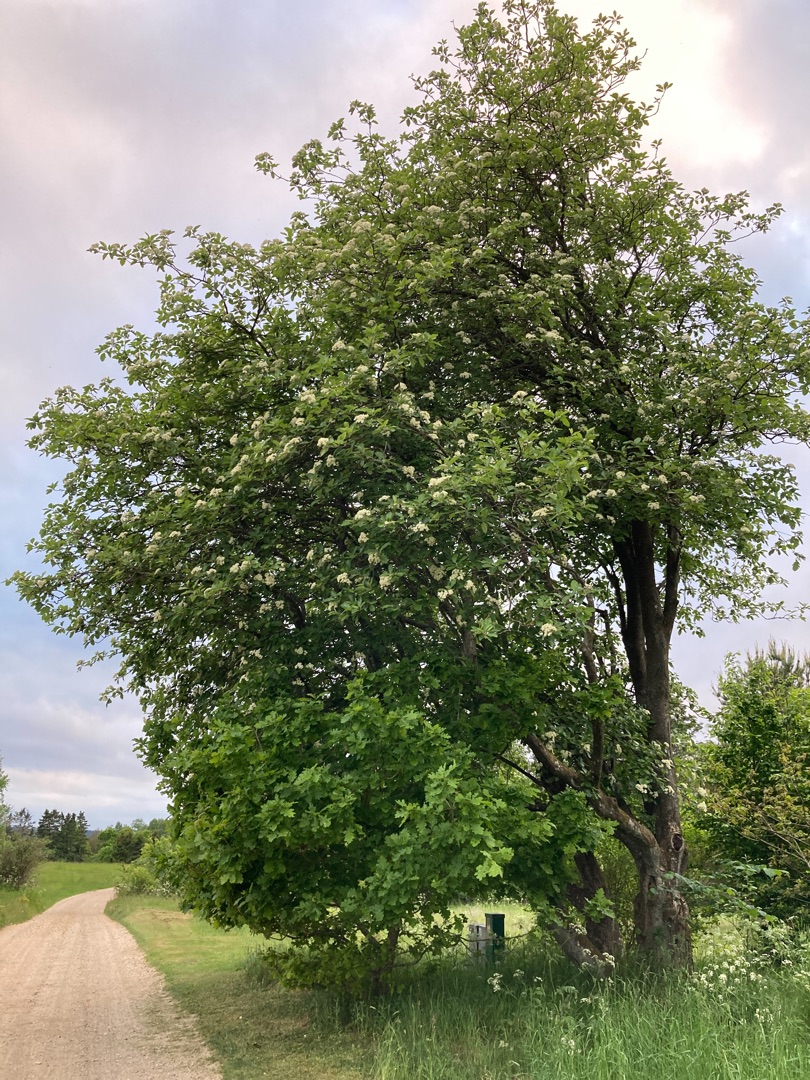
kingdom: Plantae
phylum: Tracheophyta
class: Magnoliopsida
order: Rosales
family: Rosaceae
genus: Scandosorbus
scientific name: Scandosorbus intermedia
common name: Selje-røn
